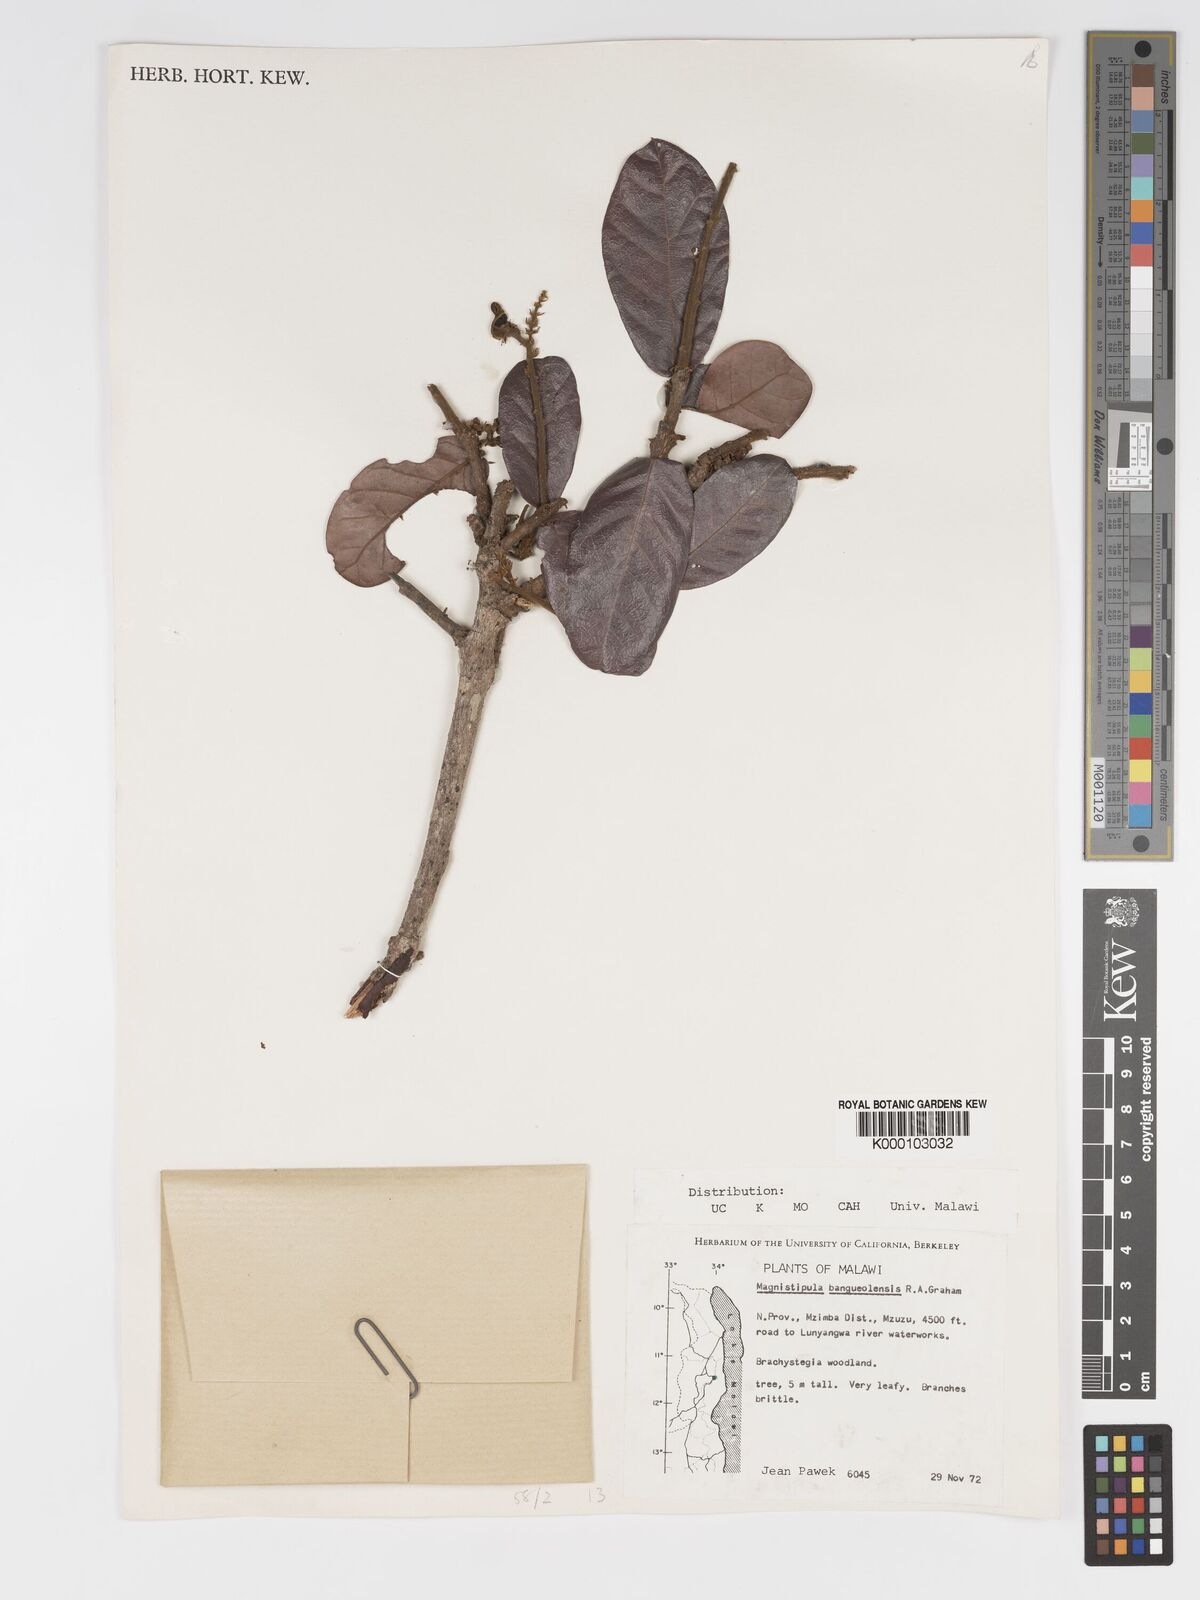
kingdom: Plantae
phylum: Tracheophyta
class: Magnoliopsida
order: Malpighiales
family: Chrysobalanaceae
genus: Magnistipula
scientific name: Magnistipula butayei
